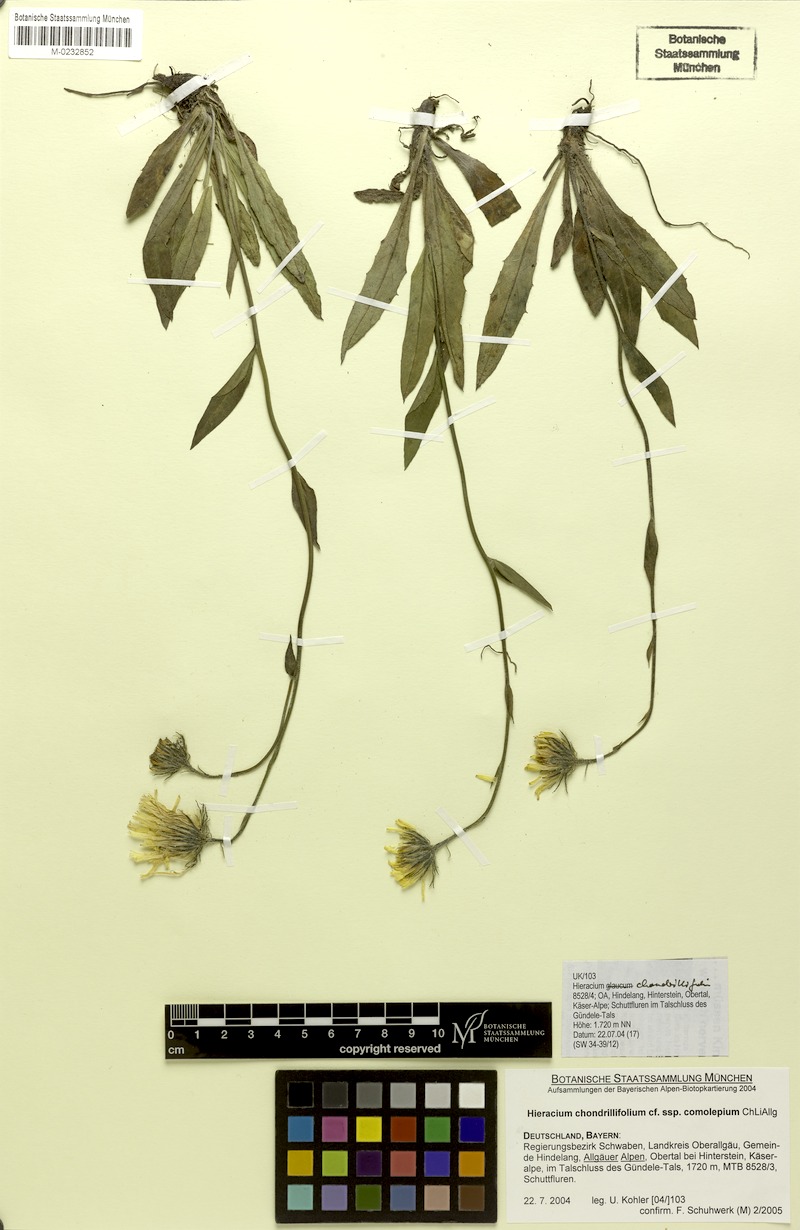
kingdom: Plantae
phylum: Tracheophyta
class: Magnoliopsida
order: Asterales
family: Asteraceae
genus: Hieracium
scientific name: Hieracium subspeciosum
